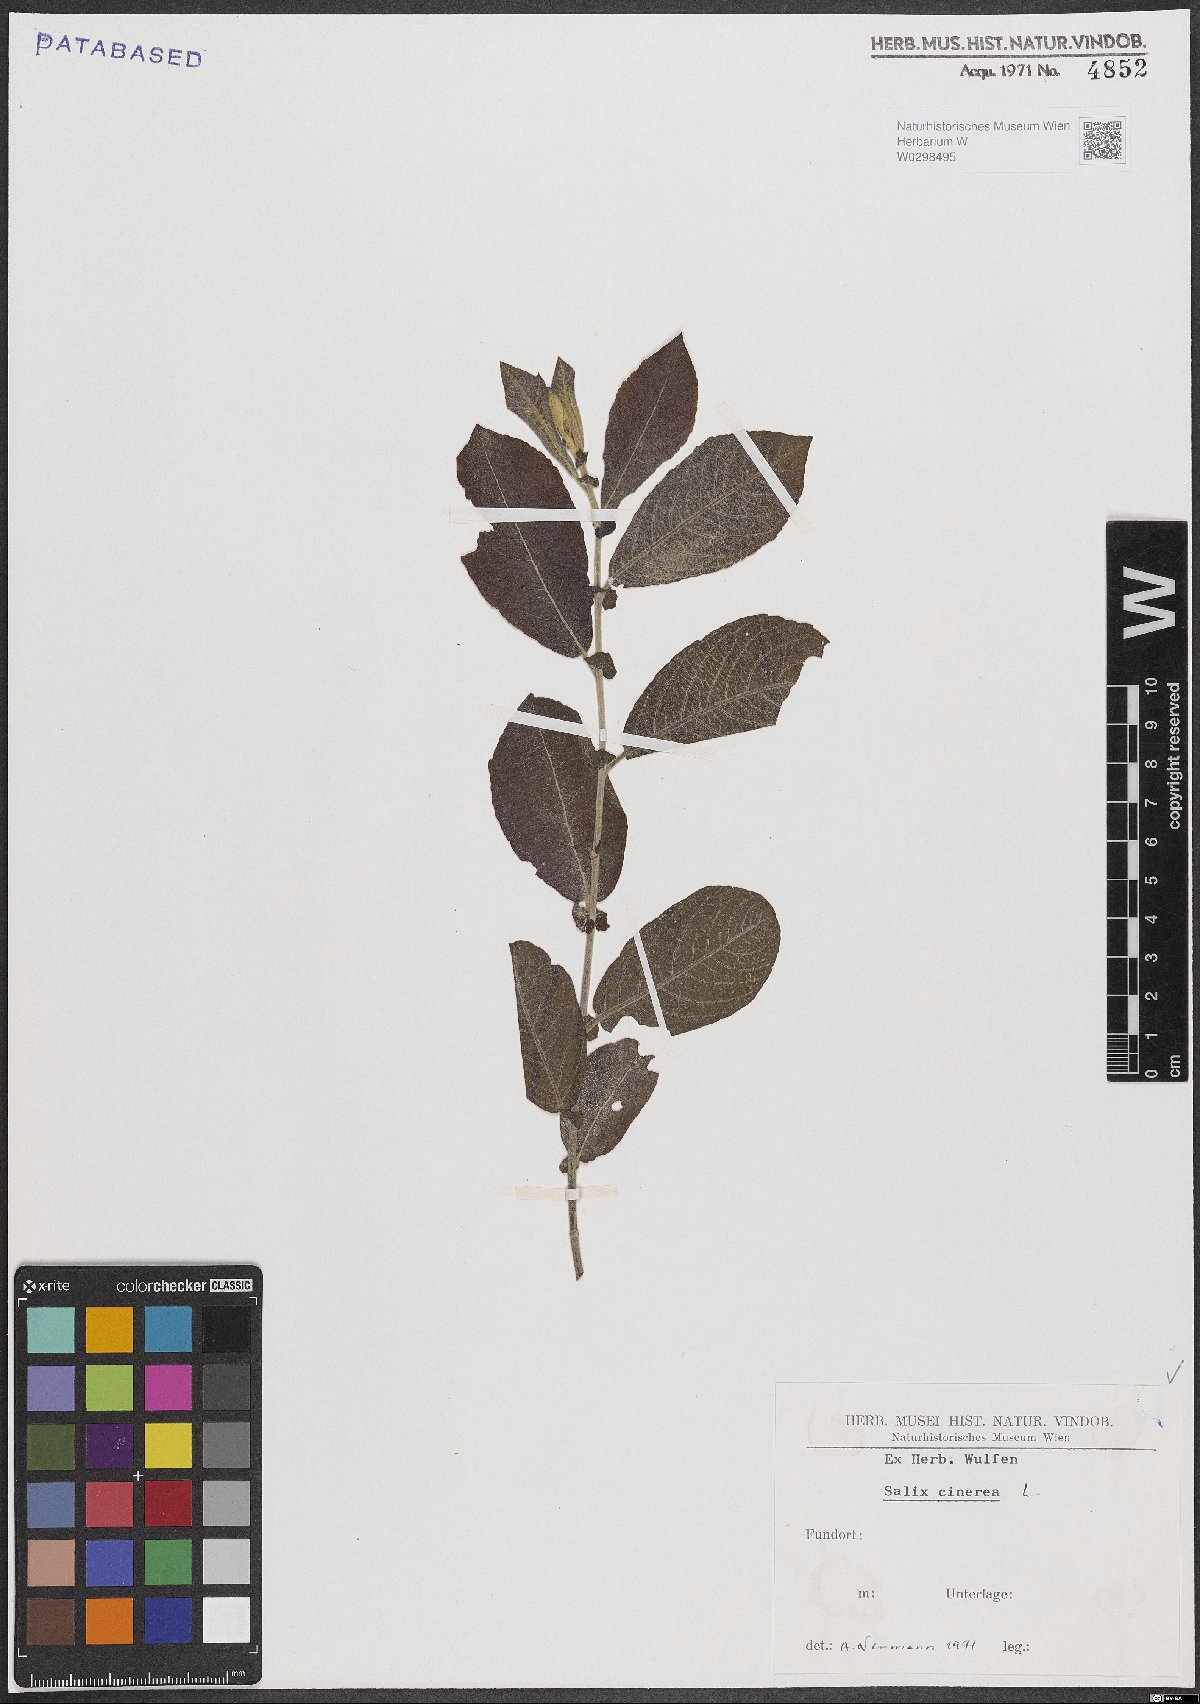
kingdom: Plantae
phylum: Tracheophyta
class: Magnoliopsida
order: Malpighiales
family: Salicaceae
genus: Salix
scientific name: Salix cinerea
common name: Common sallow
